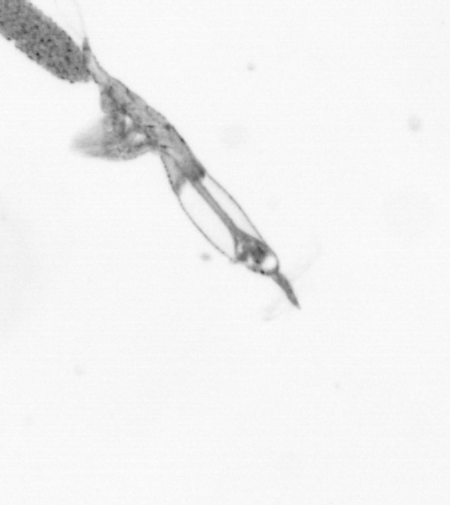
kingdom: Animalia
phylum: Arthropoda
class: Copepoda
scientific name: Copepoda
